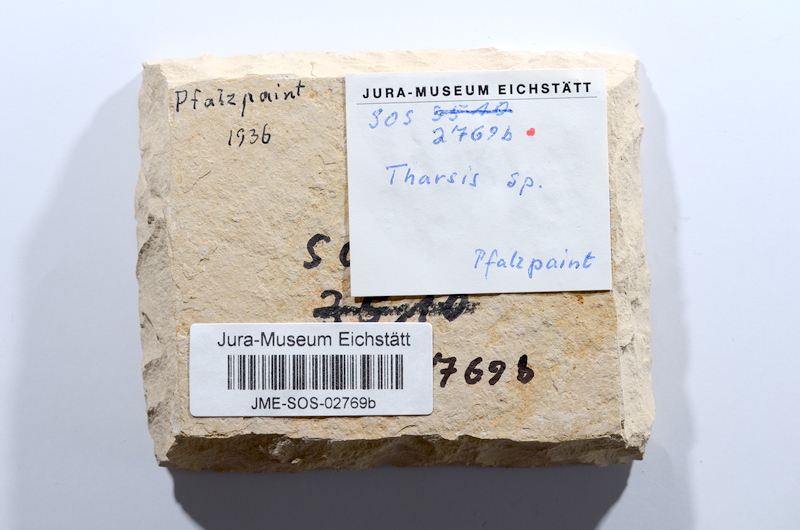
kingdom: Animalia
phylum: Chordata
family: Ascalaboidae
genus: Tharsis
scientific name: Tharsis dubius
